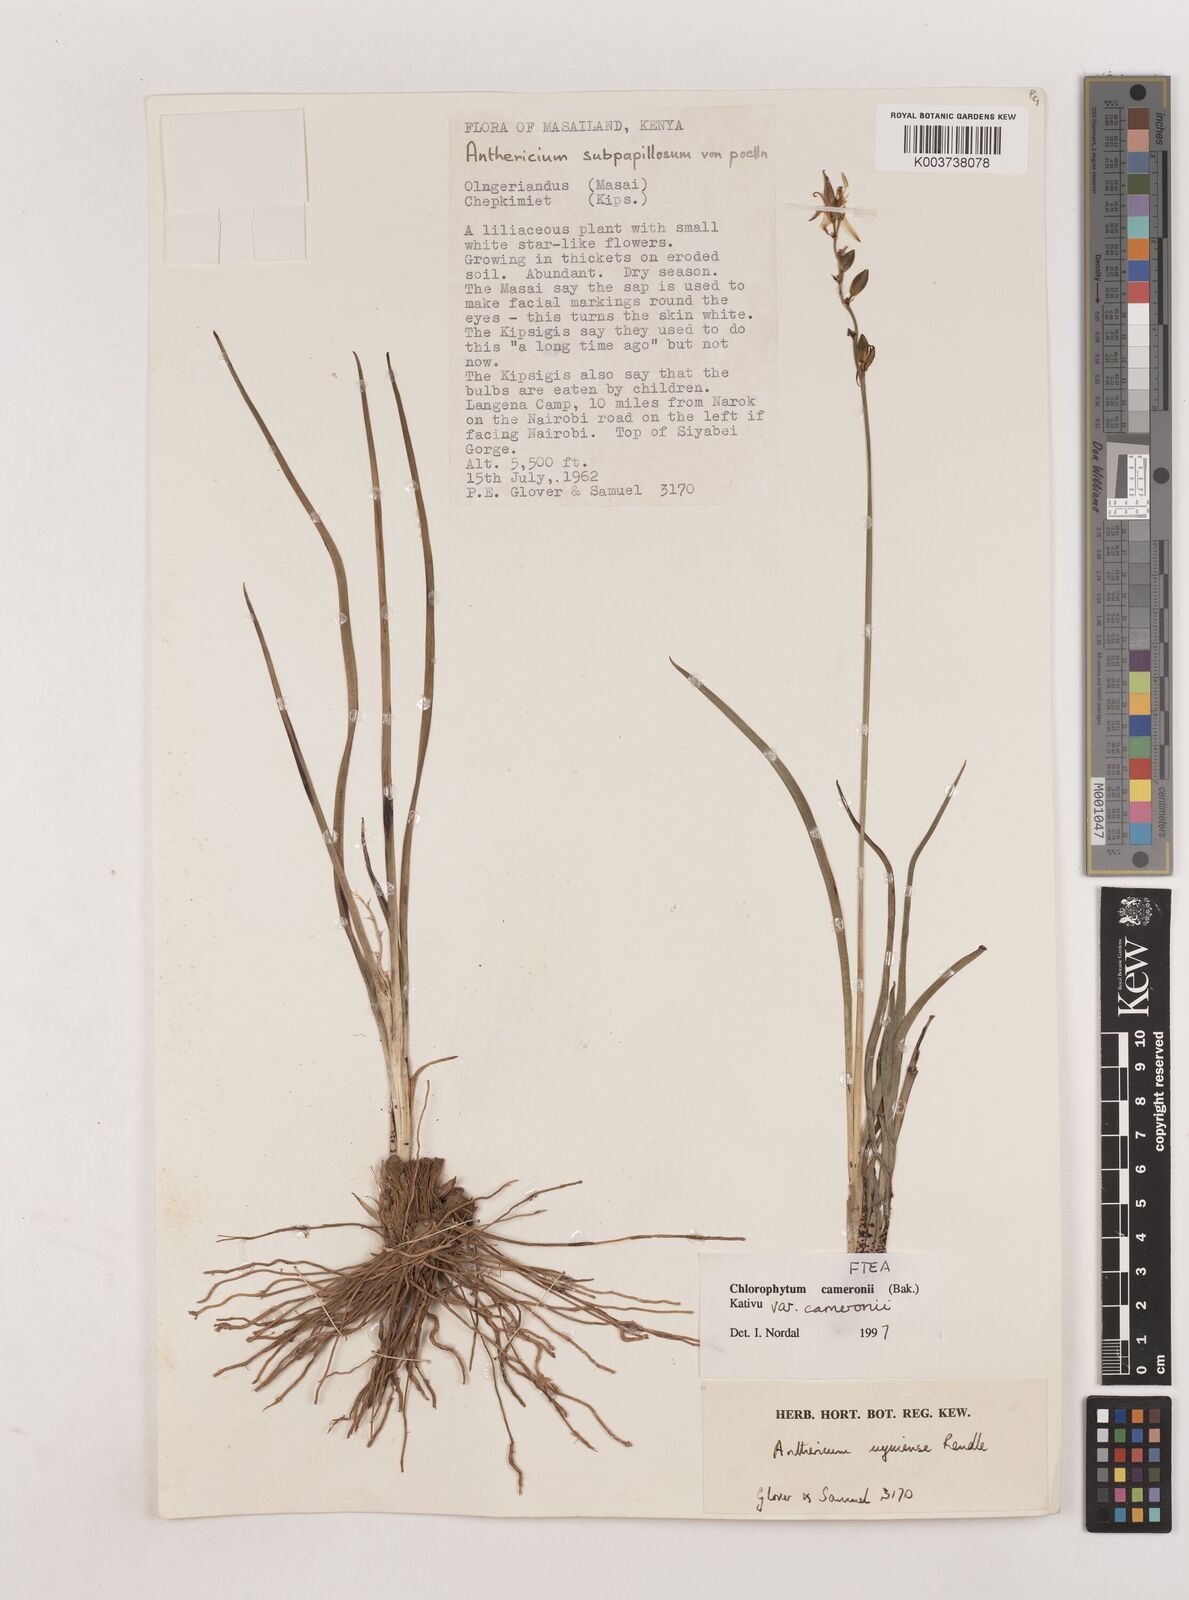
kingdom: Plantae
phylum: Tracheophyta
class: Liliopsida
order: Asparagales
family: Asparagaceae
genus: Chlorophytum
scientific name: Chlorophytum cameronii
